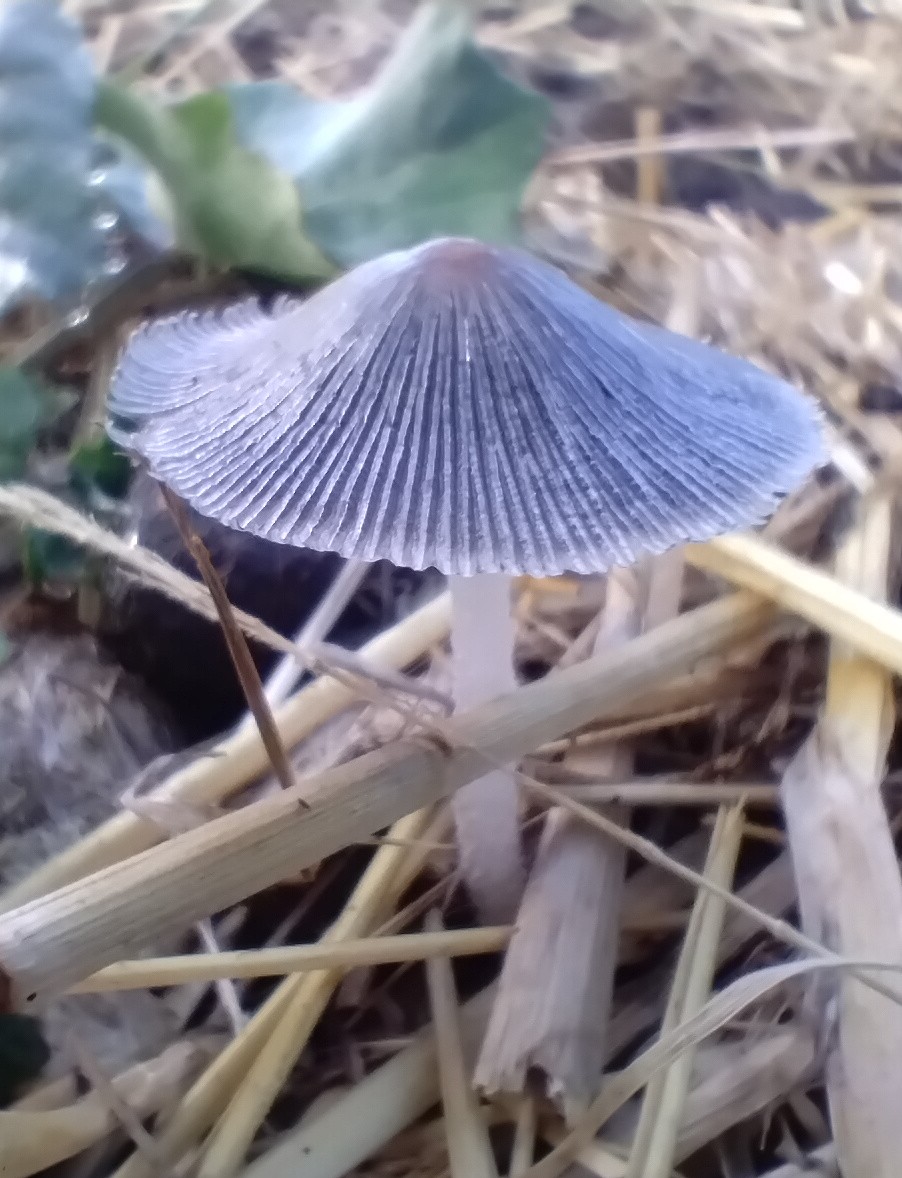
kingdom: Fungi
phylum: Basidiomycota
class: Agaricomycetes
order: Agaricales
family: Psathyrellaceae
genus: Coprinopsis
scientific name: Coprinopsis
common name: blækhat
